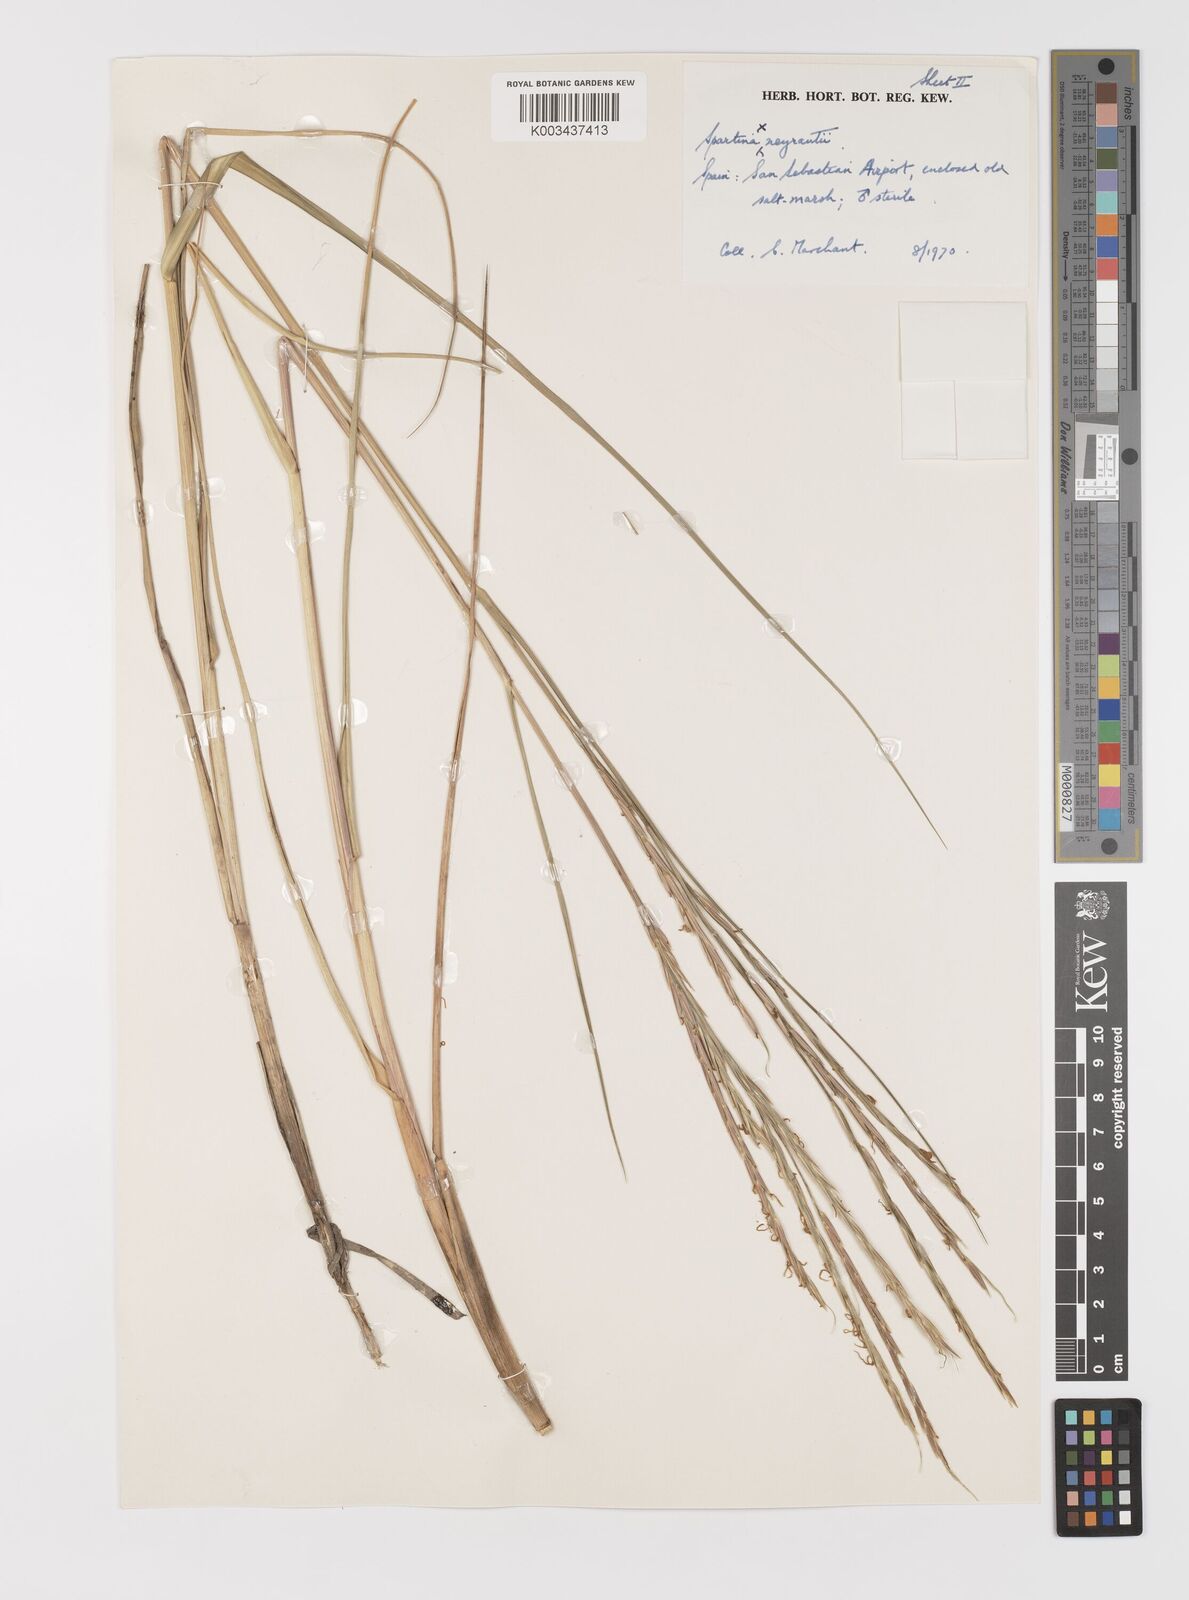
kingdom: Plantae
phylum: Tracheophyta
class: Liliopsida
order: Poales
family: Poaceae
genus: Sporobolus
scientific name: Sporobolus townsendii
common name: Townsend's cordgrass
